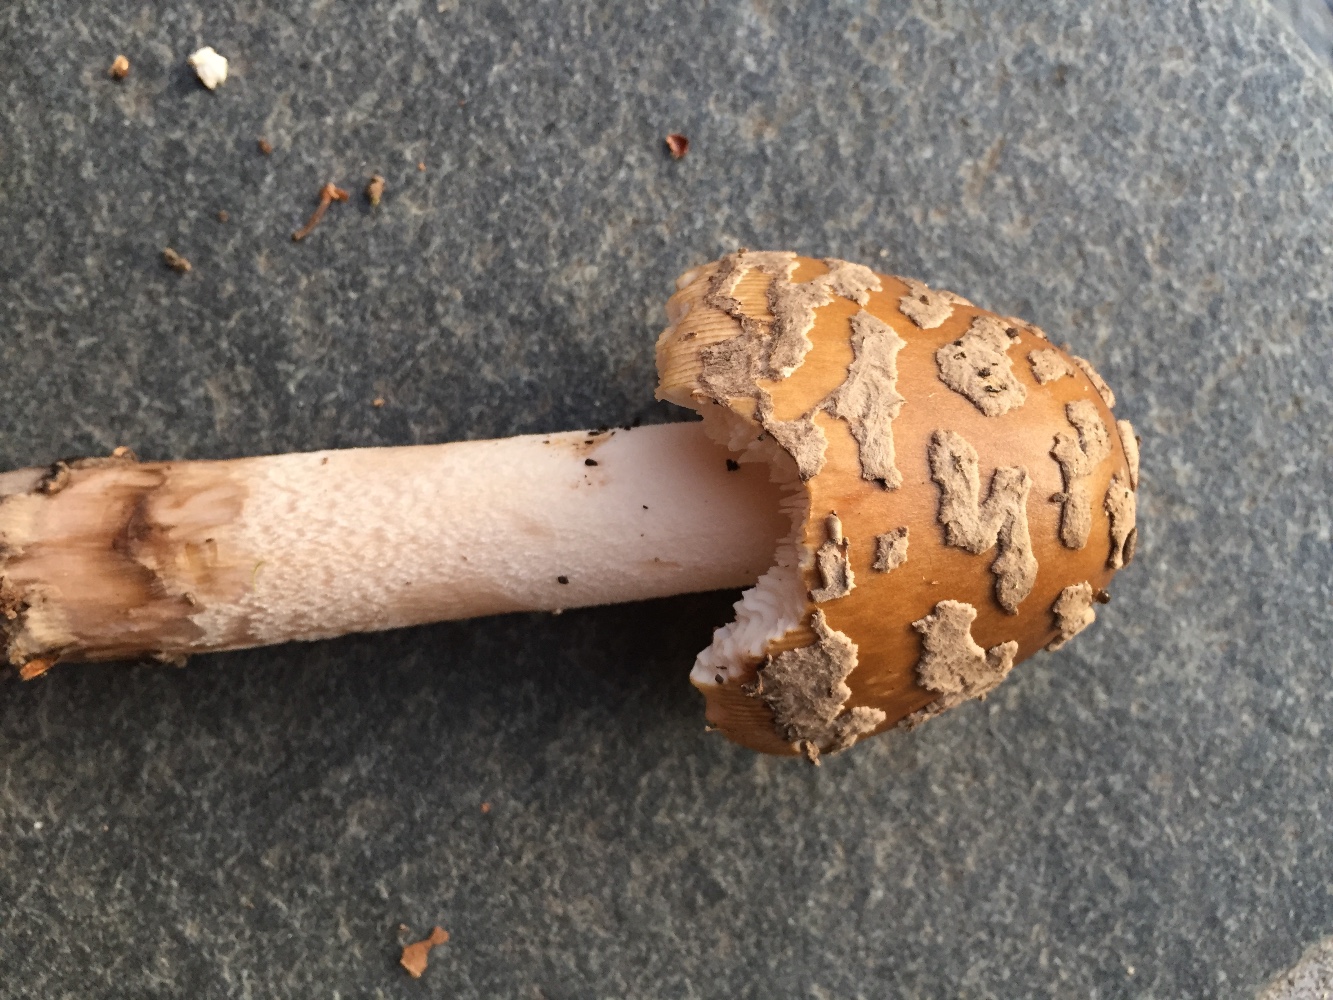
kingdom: Fungi
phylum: Basidiomycota
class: Agaricomycetes
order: Agaricales
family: Amanitaceae
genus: Amanita
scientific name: Amanita ceciliae
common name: stor kam-fluesvamp
